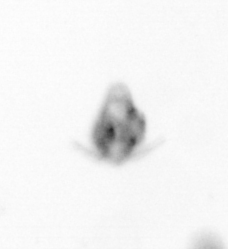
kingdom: Animalia
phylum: Arthropoda
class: Copepoda
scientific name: Copepoda
